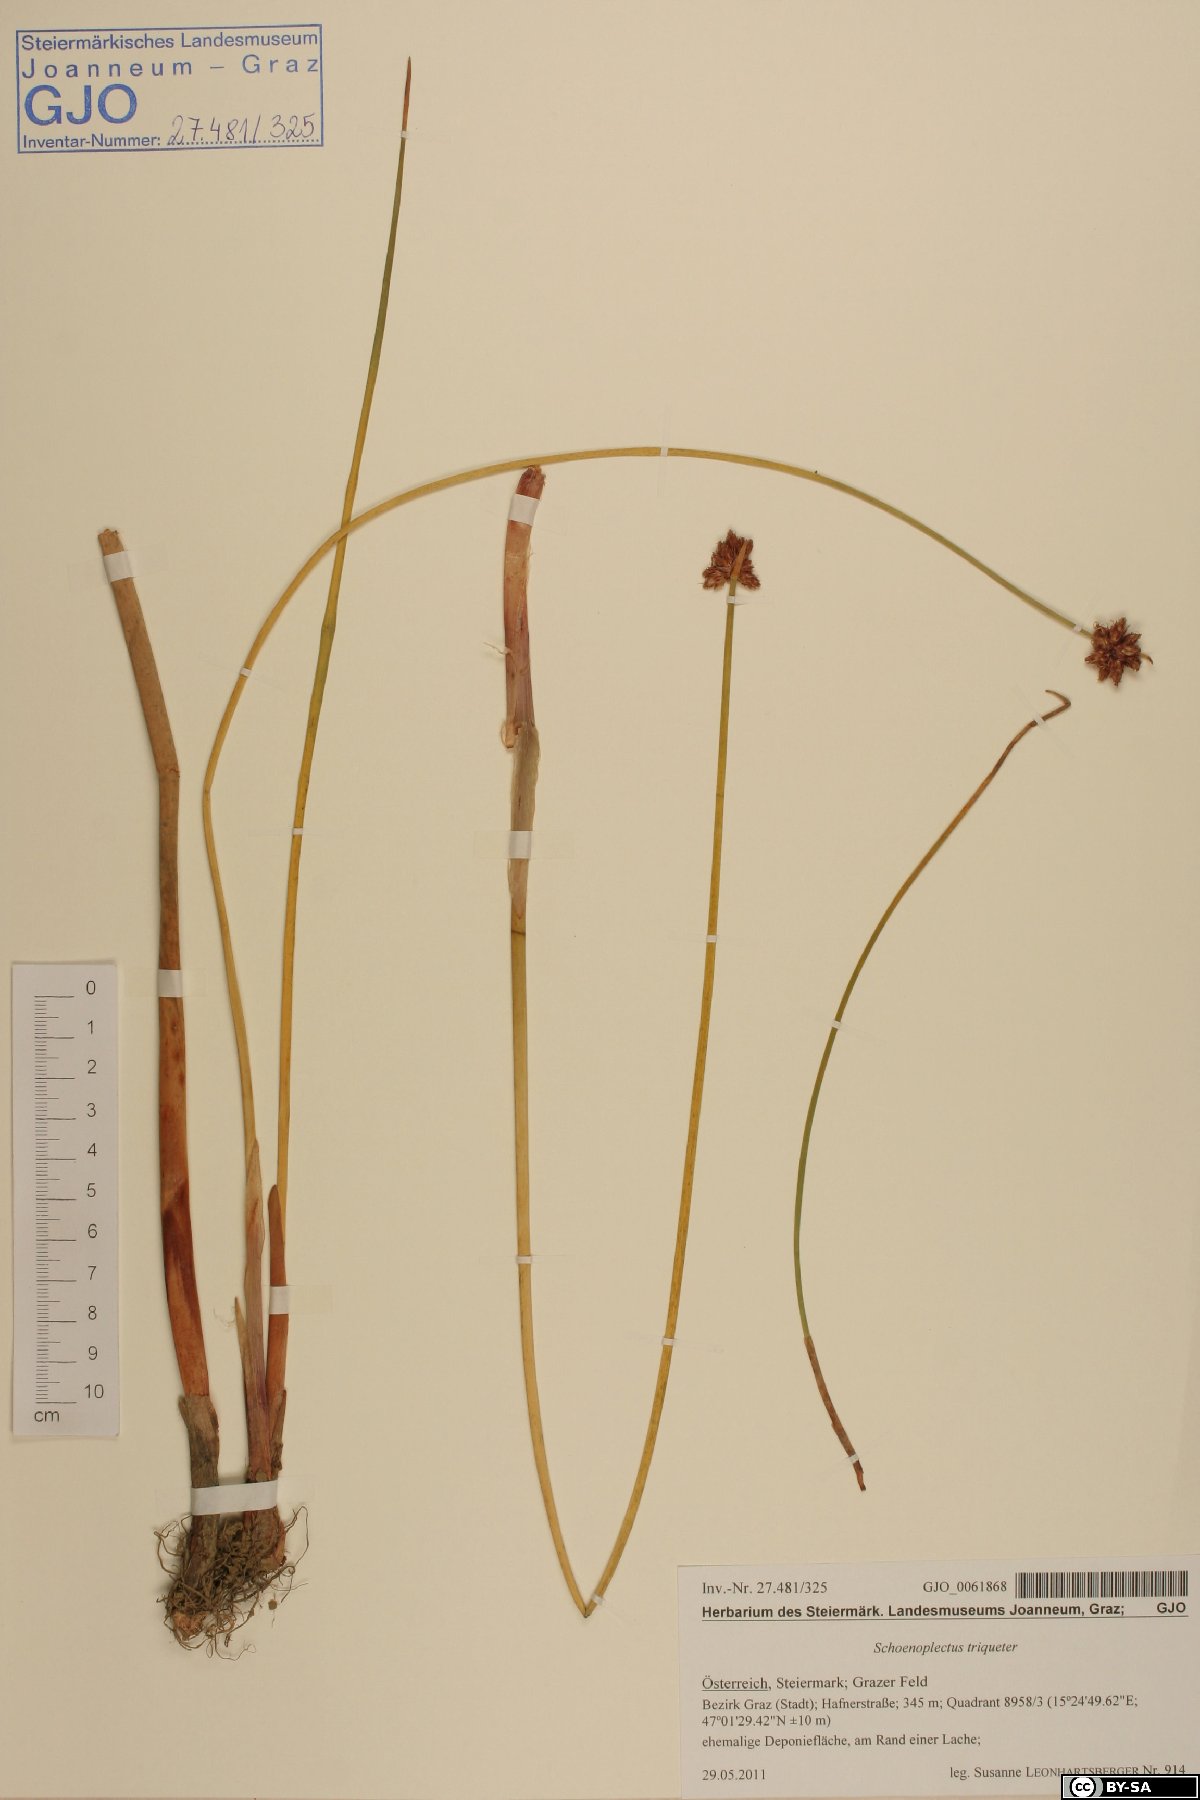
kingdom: Plantae
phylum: Tracheophyta
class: Liliopsida
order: Poales
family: Cyperaceae
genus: Schoenoplectus
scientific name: Schoenoplectus triqueter
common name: Triangular club-rush
